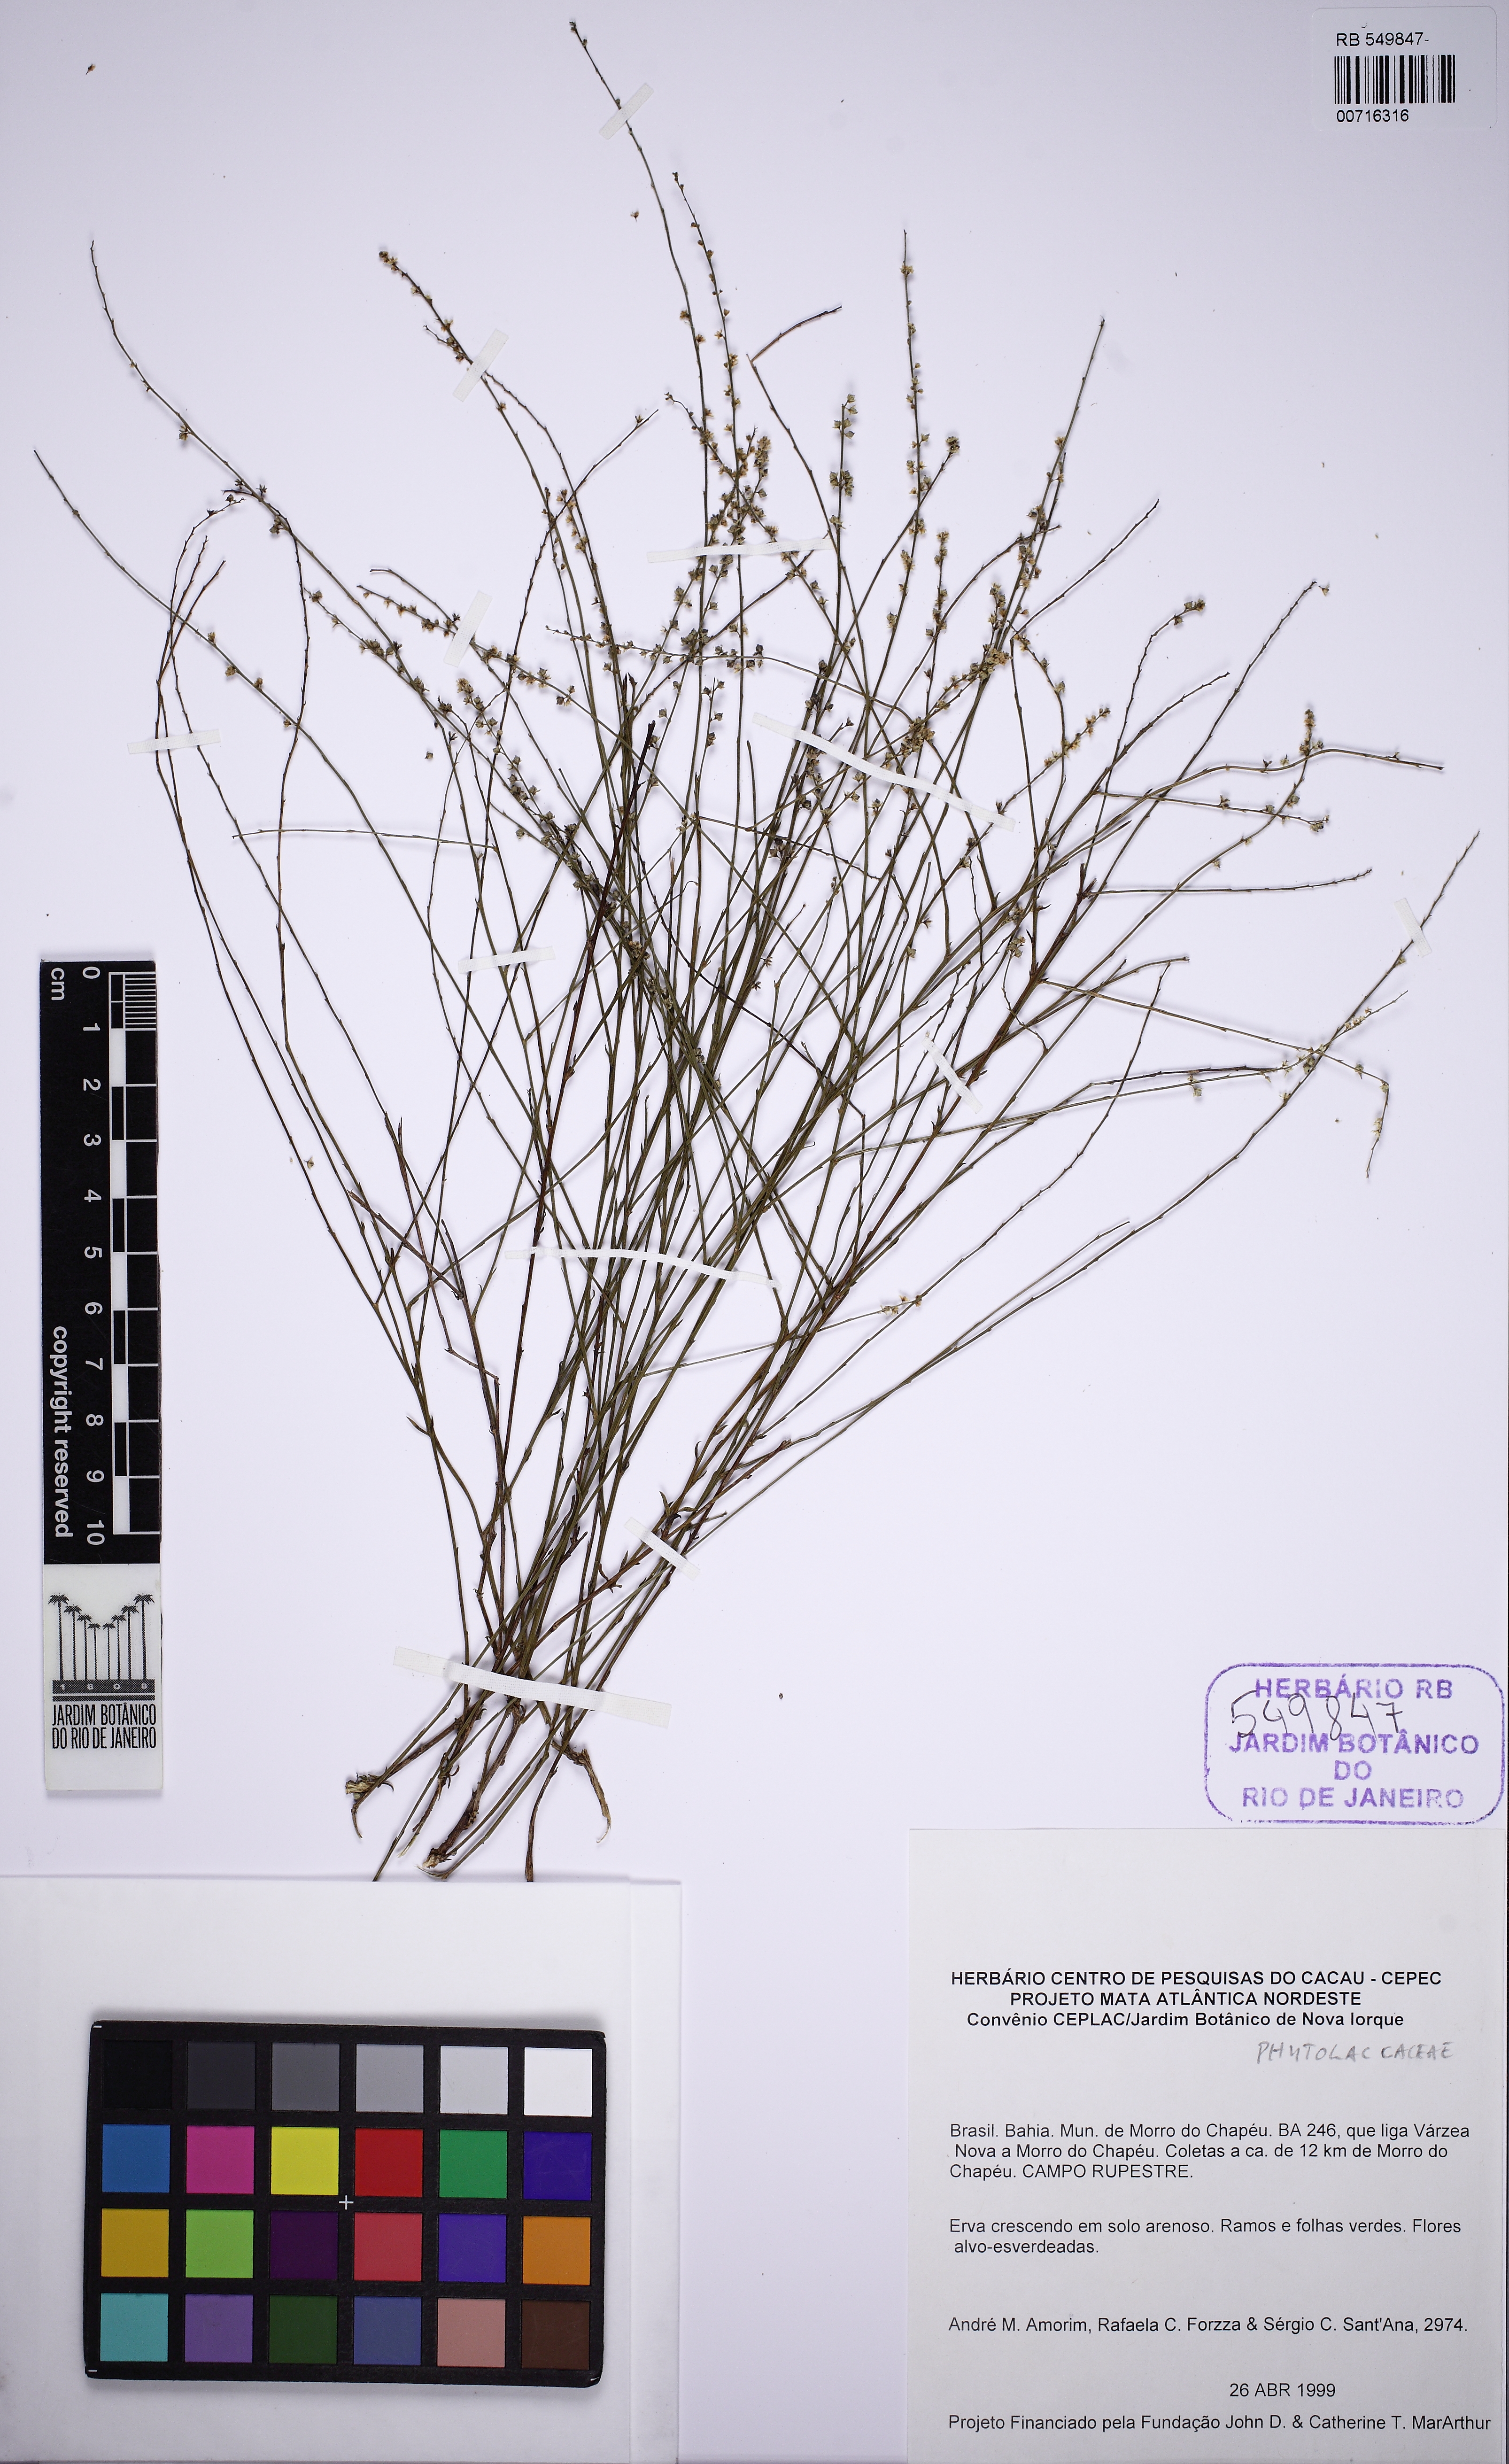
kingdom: Plantae
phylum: Tracheophyta
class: Magnoliopsida
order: Caryophyllales
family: Phytolaccaceae
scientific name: Phytolaccaceae
